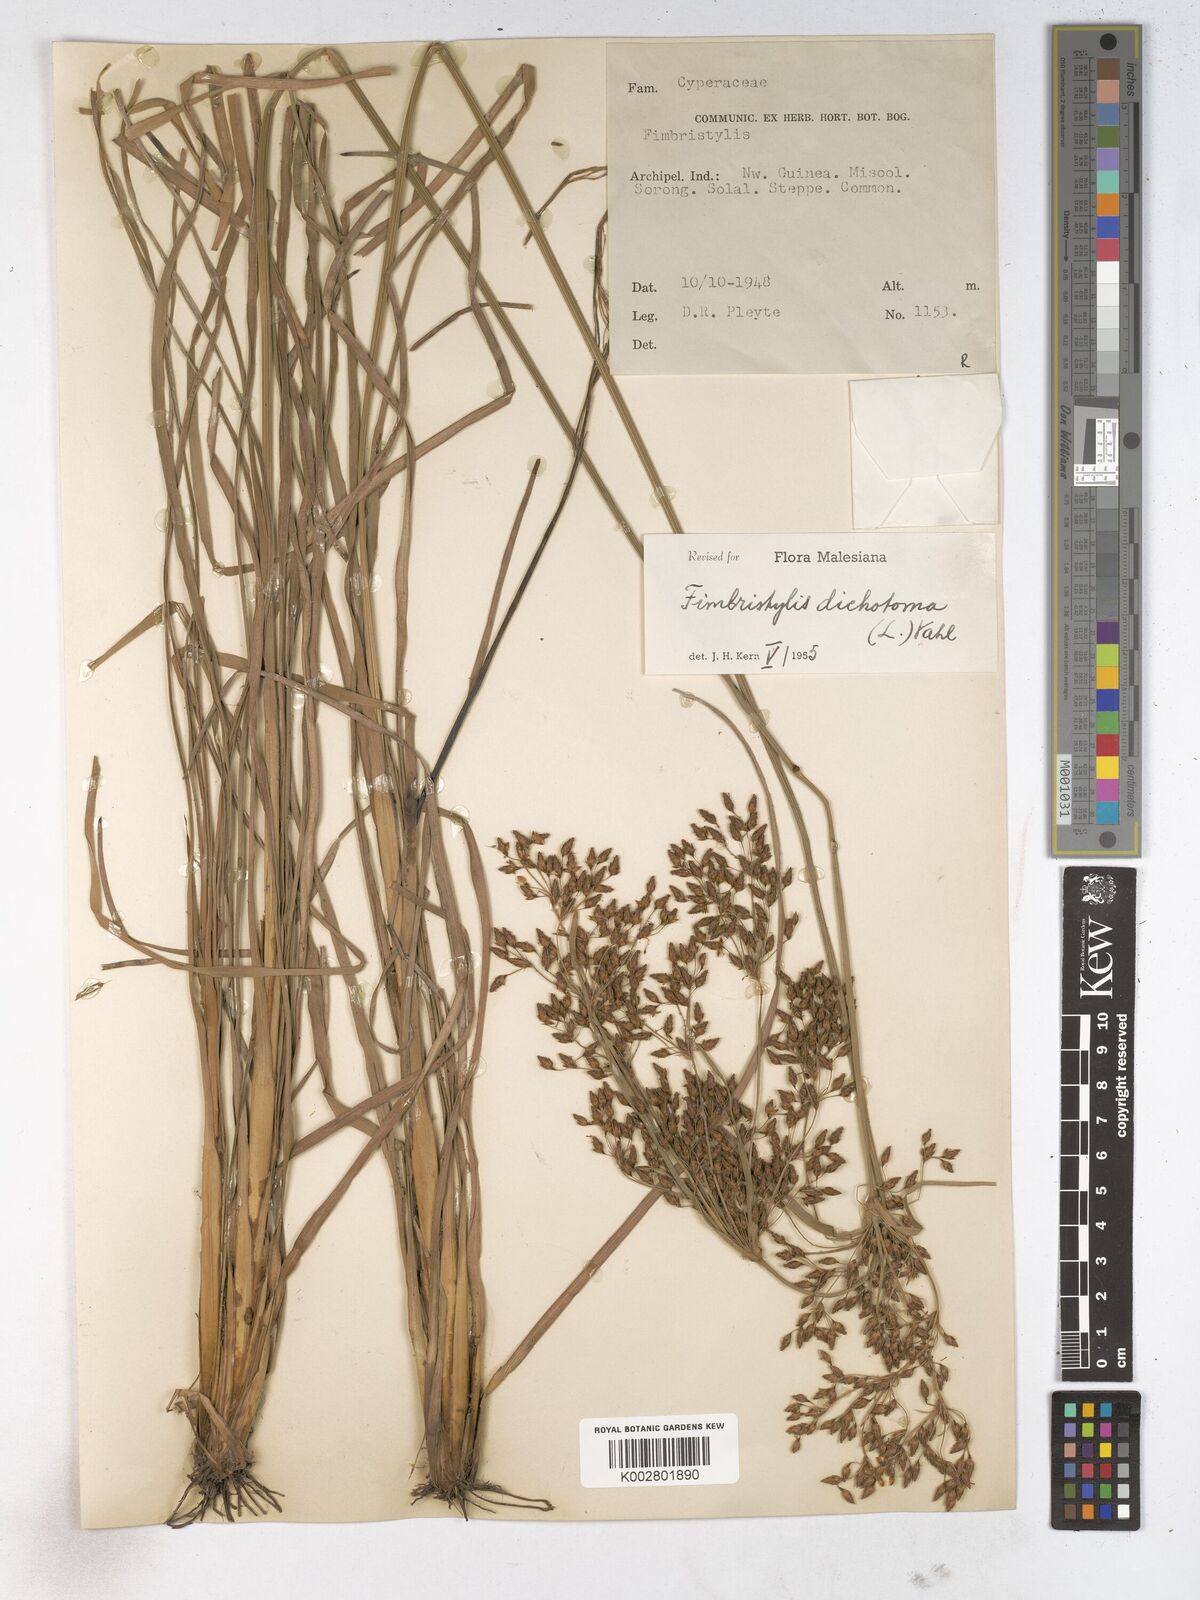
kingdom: Plantae
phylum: Tracheophyta
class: Liliopsida
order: Poales
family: Cyperaceae
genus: Fimbristylis
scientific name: Fimbristylis dichotoma
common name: Forked fimbry
